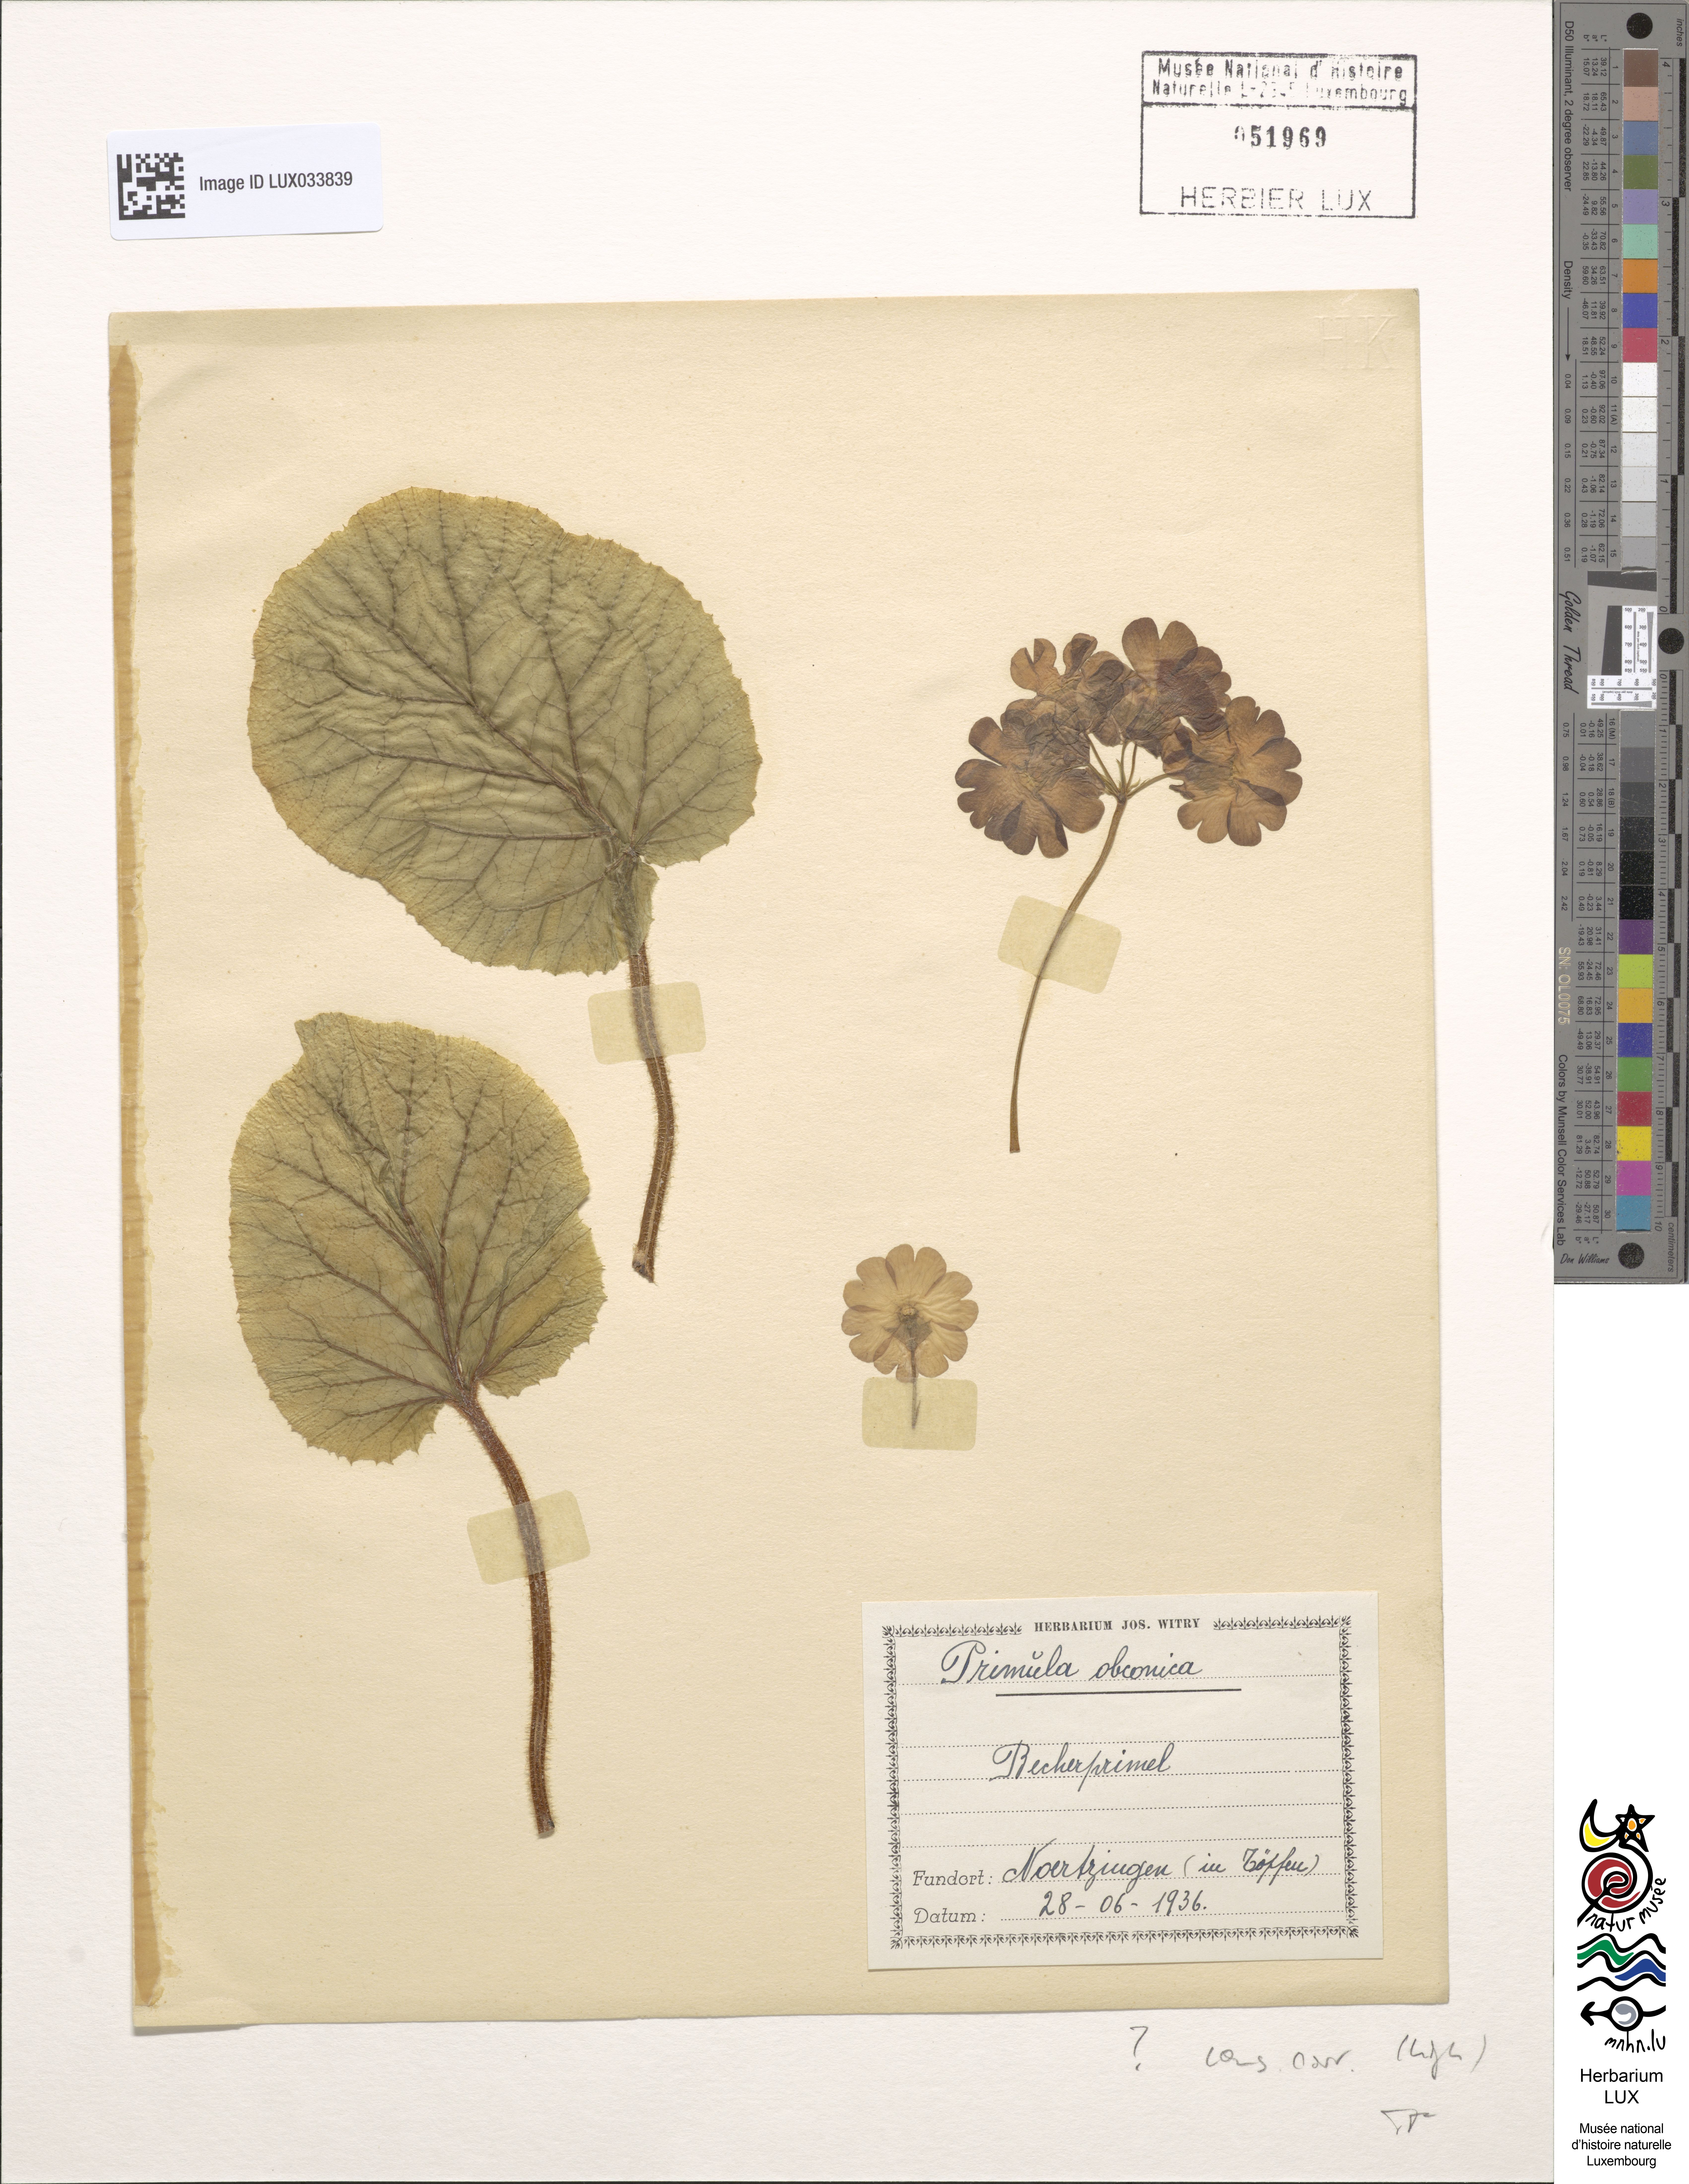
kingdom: Plantae
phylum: Tracheophyta
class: Magnoliopsida
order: Ericales
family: Primulaceae
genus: Primula
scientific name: Primula obconica
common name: German primrose
